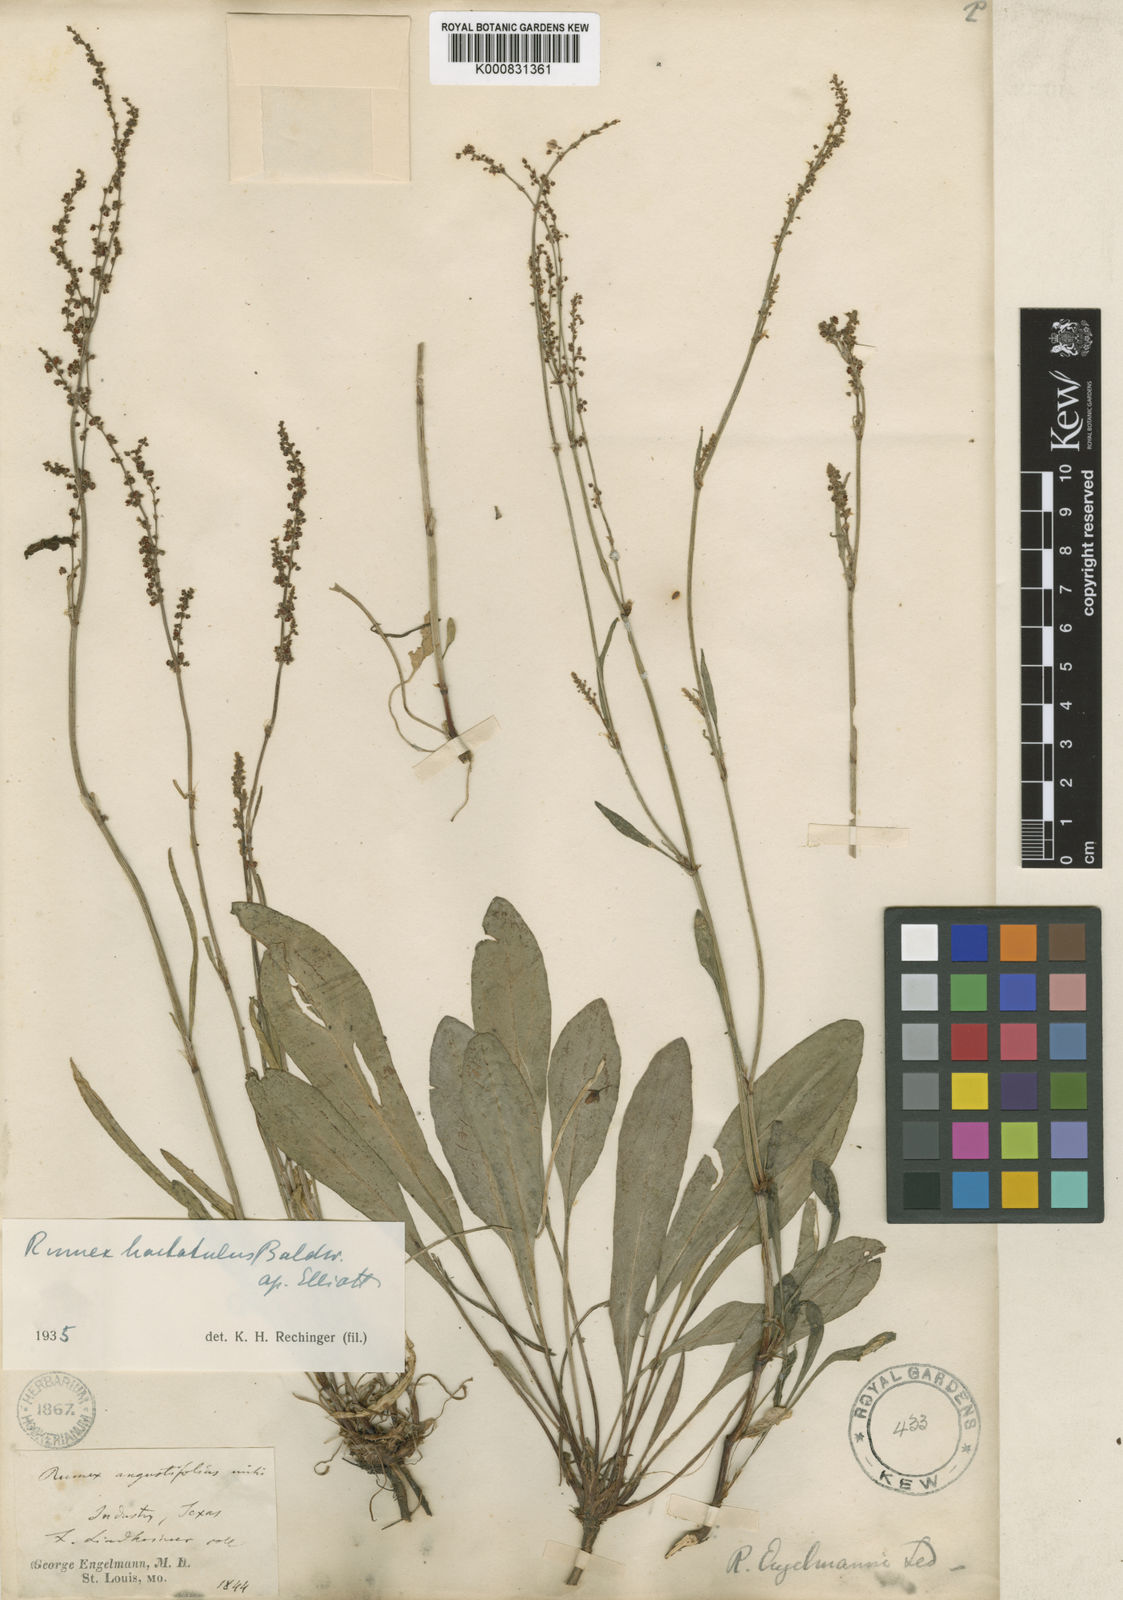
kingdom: Plantae
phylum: Tracheophyta
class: Magnoliopsida
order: Caryophyllales
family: Polygonaceae
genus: Rumex
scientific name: Rumex hastatulus
